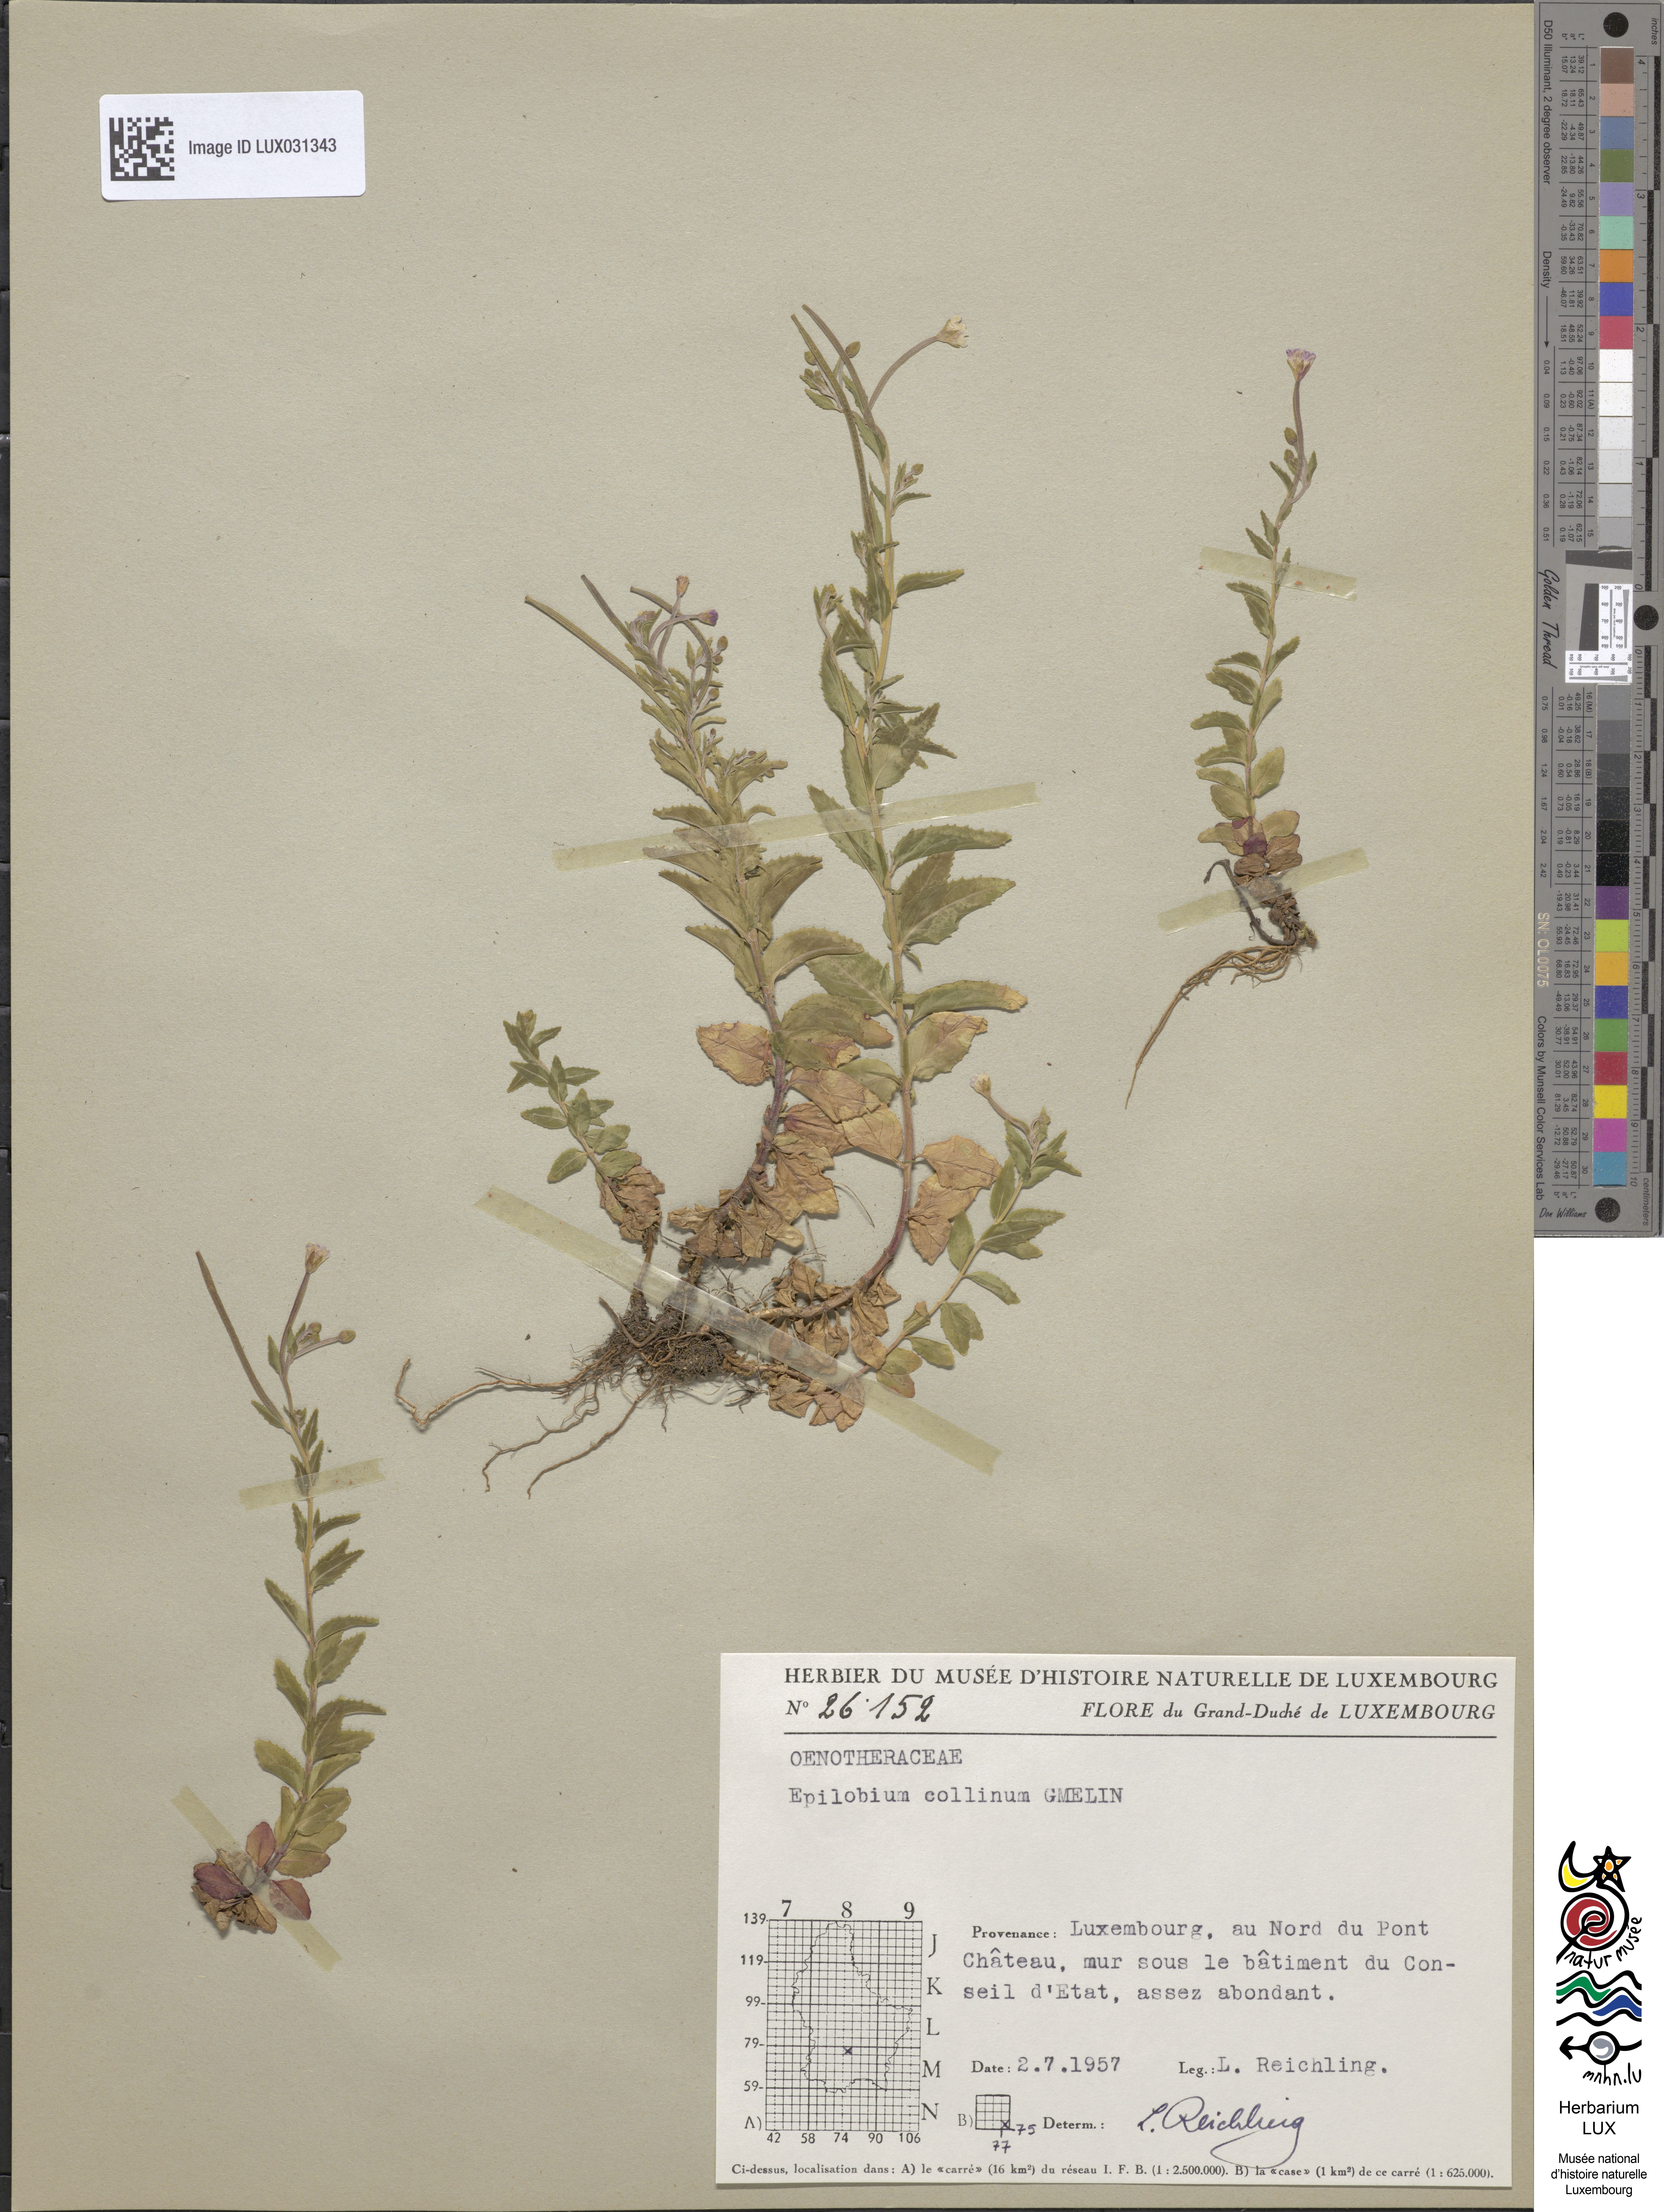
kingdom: Plantae
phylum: Tracheophyta
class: Magnoliopsida
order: Myrtales
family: Onagraceae
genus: Epilobium
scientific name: Epilobium collinum
